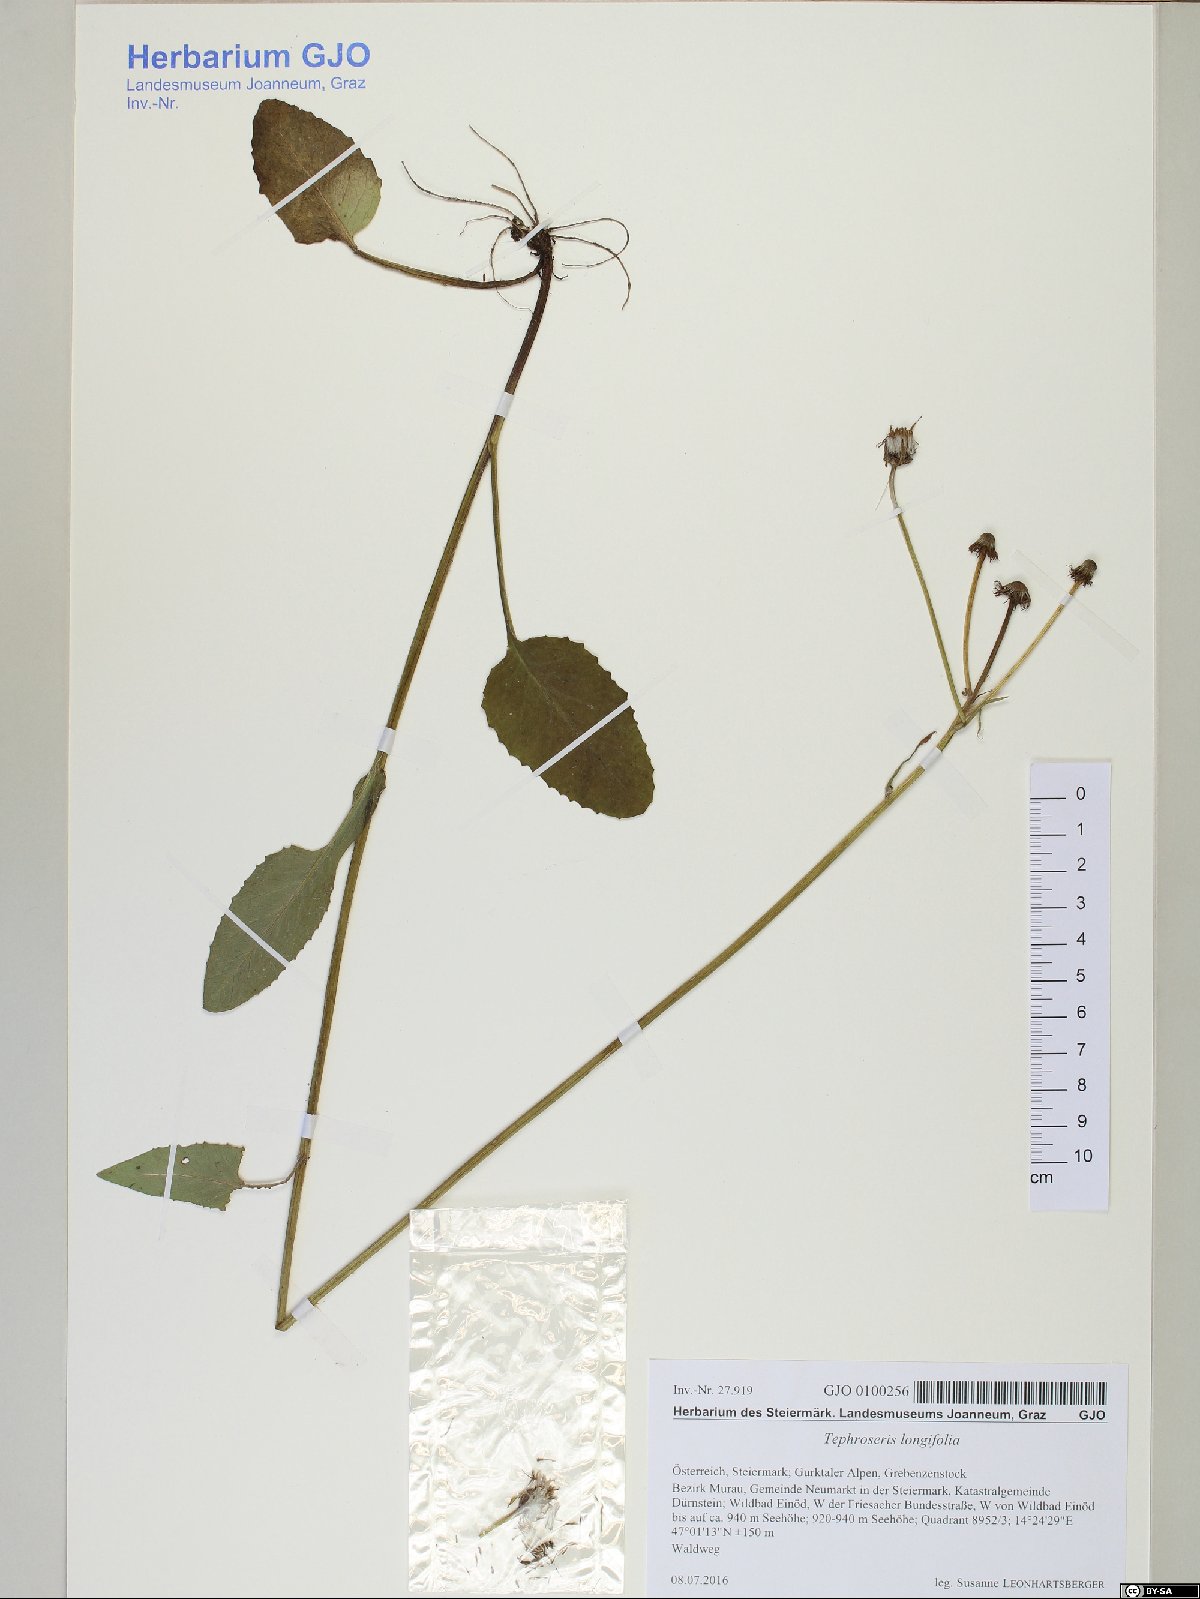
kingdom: Plantae
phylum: Tracheophyta
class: Magnoliopsida
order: Asterales
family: Asteraceae
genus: Tephroseris
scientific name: Tephroseris longifolia
